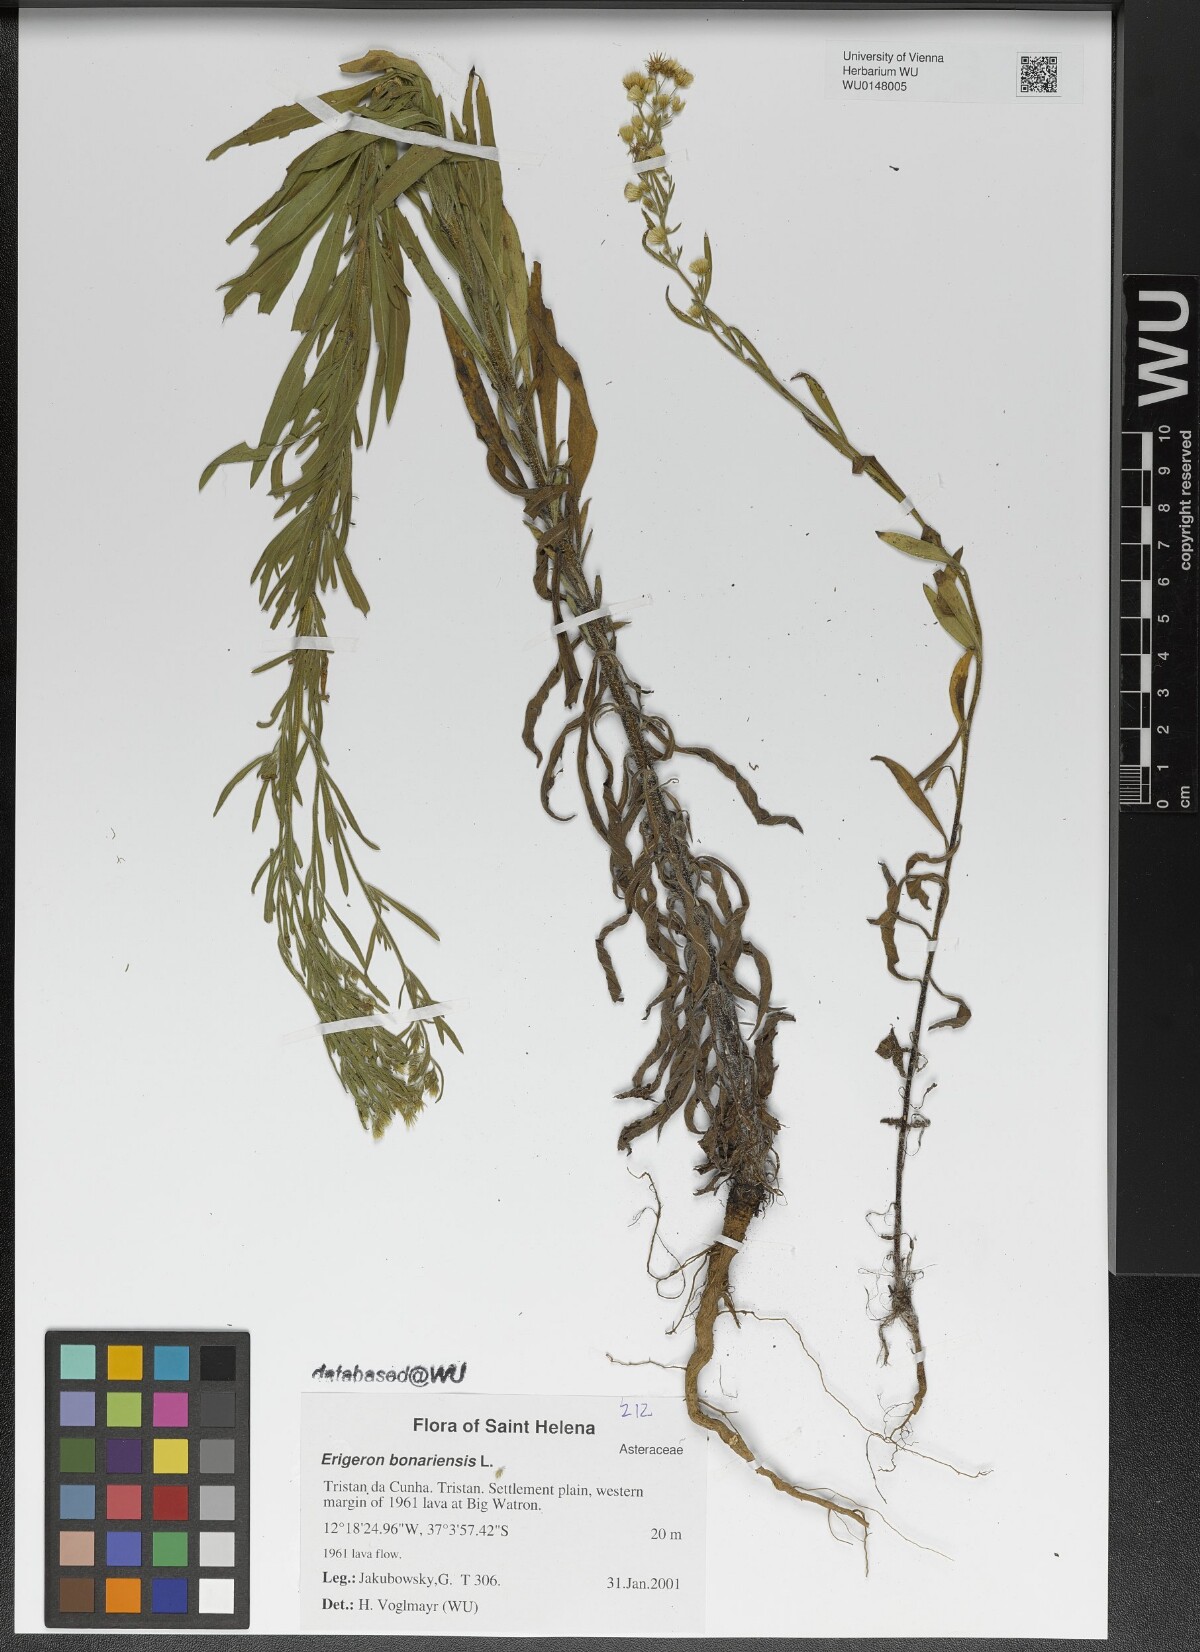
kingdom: Plantae
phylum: Tracheophyta
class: Magnoliopsida
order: Asterales
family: Asteraceae
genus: Erigeron
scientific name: Erigeron bonariensis
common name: Argentine fleabane
